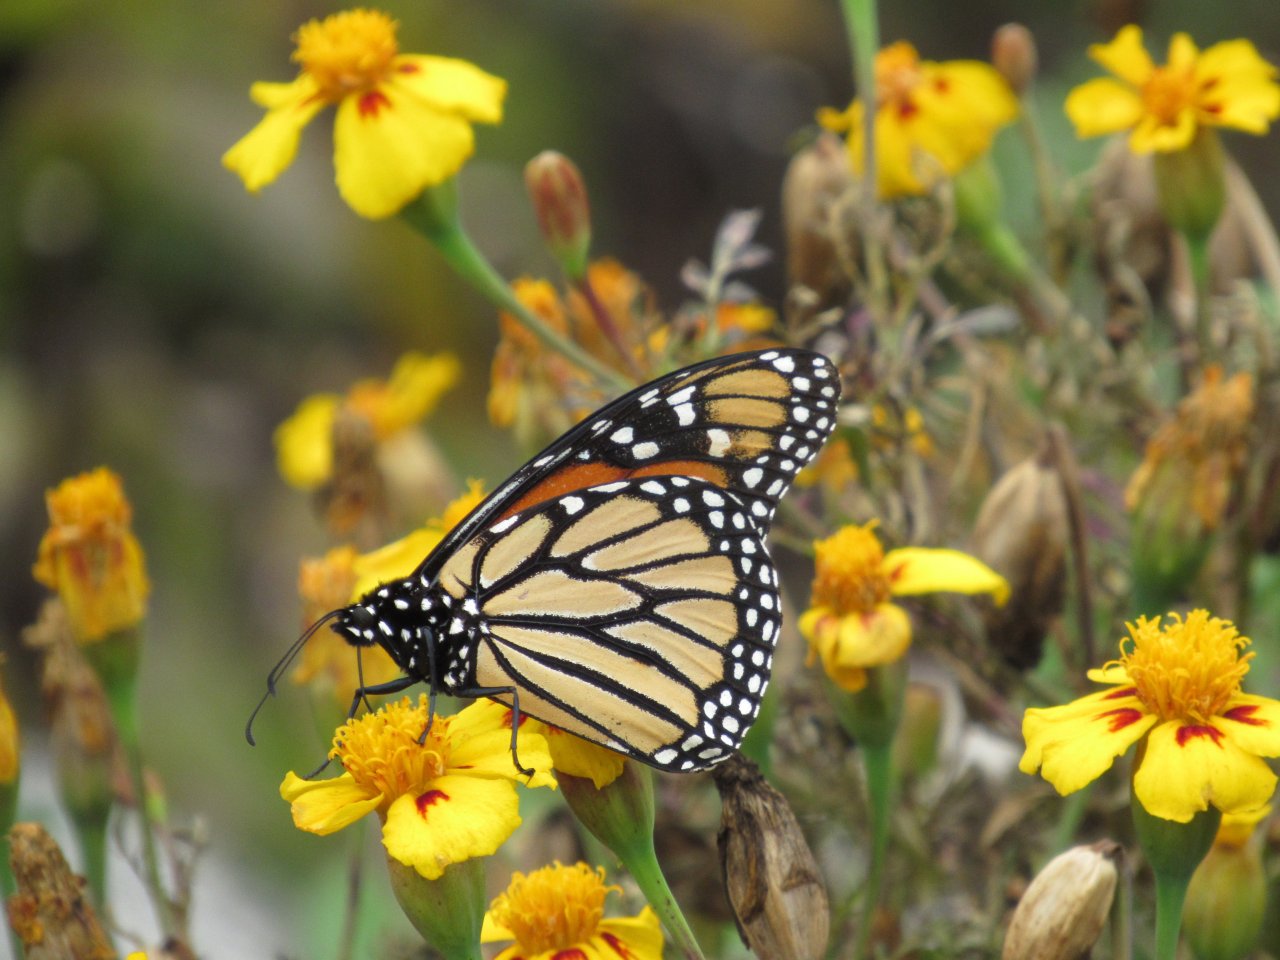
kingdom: Animalia
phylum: Arthropoda
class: Insecta
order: Lepidoptera
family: Nymphalidae
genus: Danaus
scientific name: Danaus plexippus
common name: Monarch
